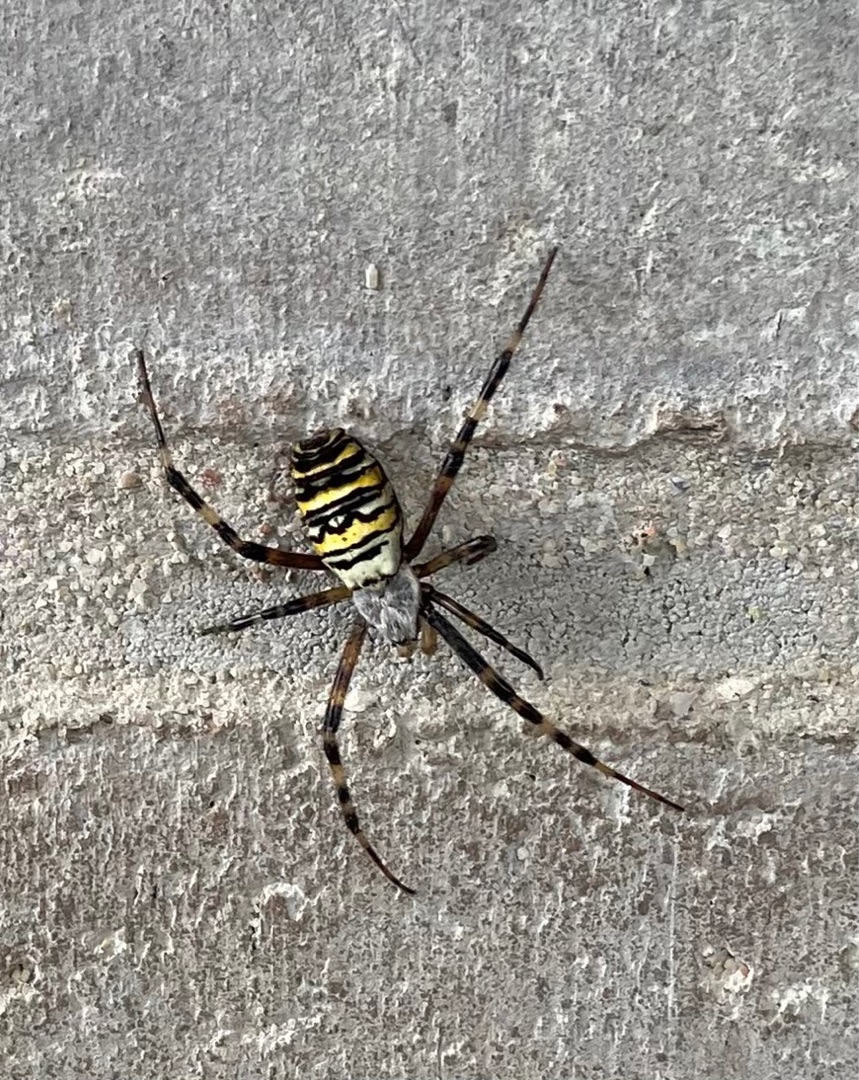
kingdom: Animalia
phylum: Arthropoda
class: Arachnida
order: Araneae
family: Araneidae
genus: Argiope
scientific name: Argiope bruennichi
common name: Hvepseedderkop
